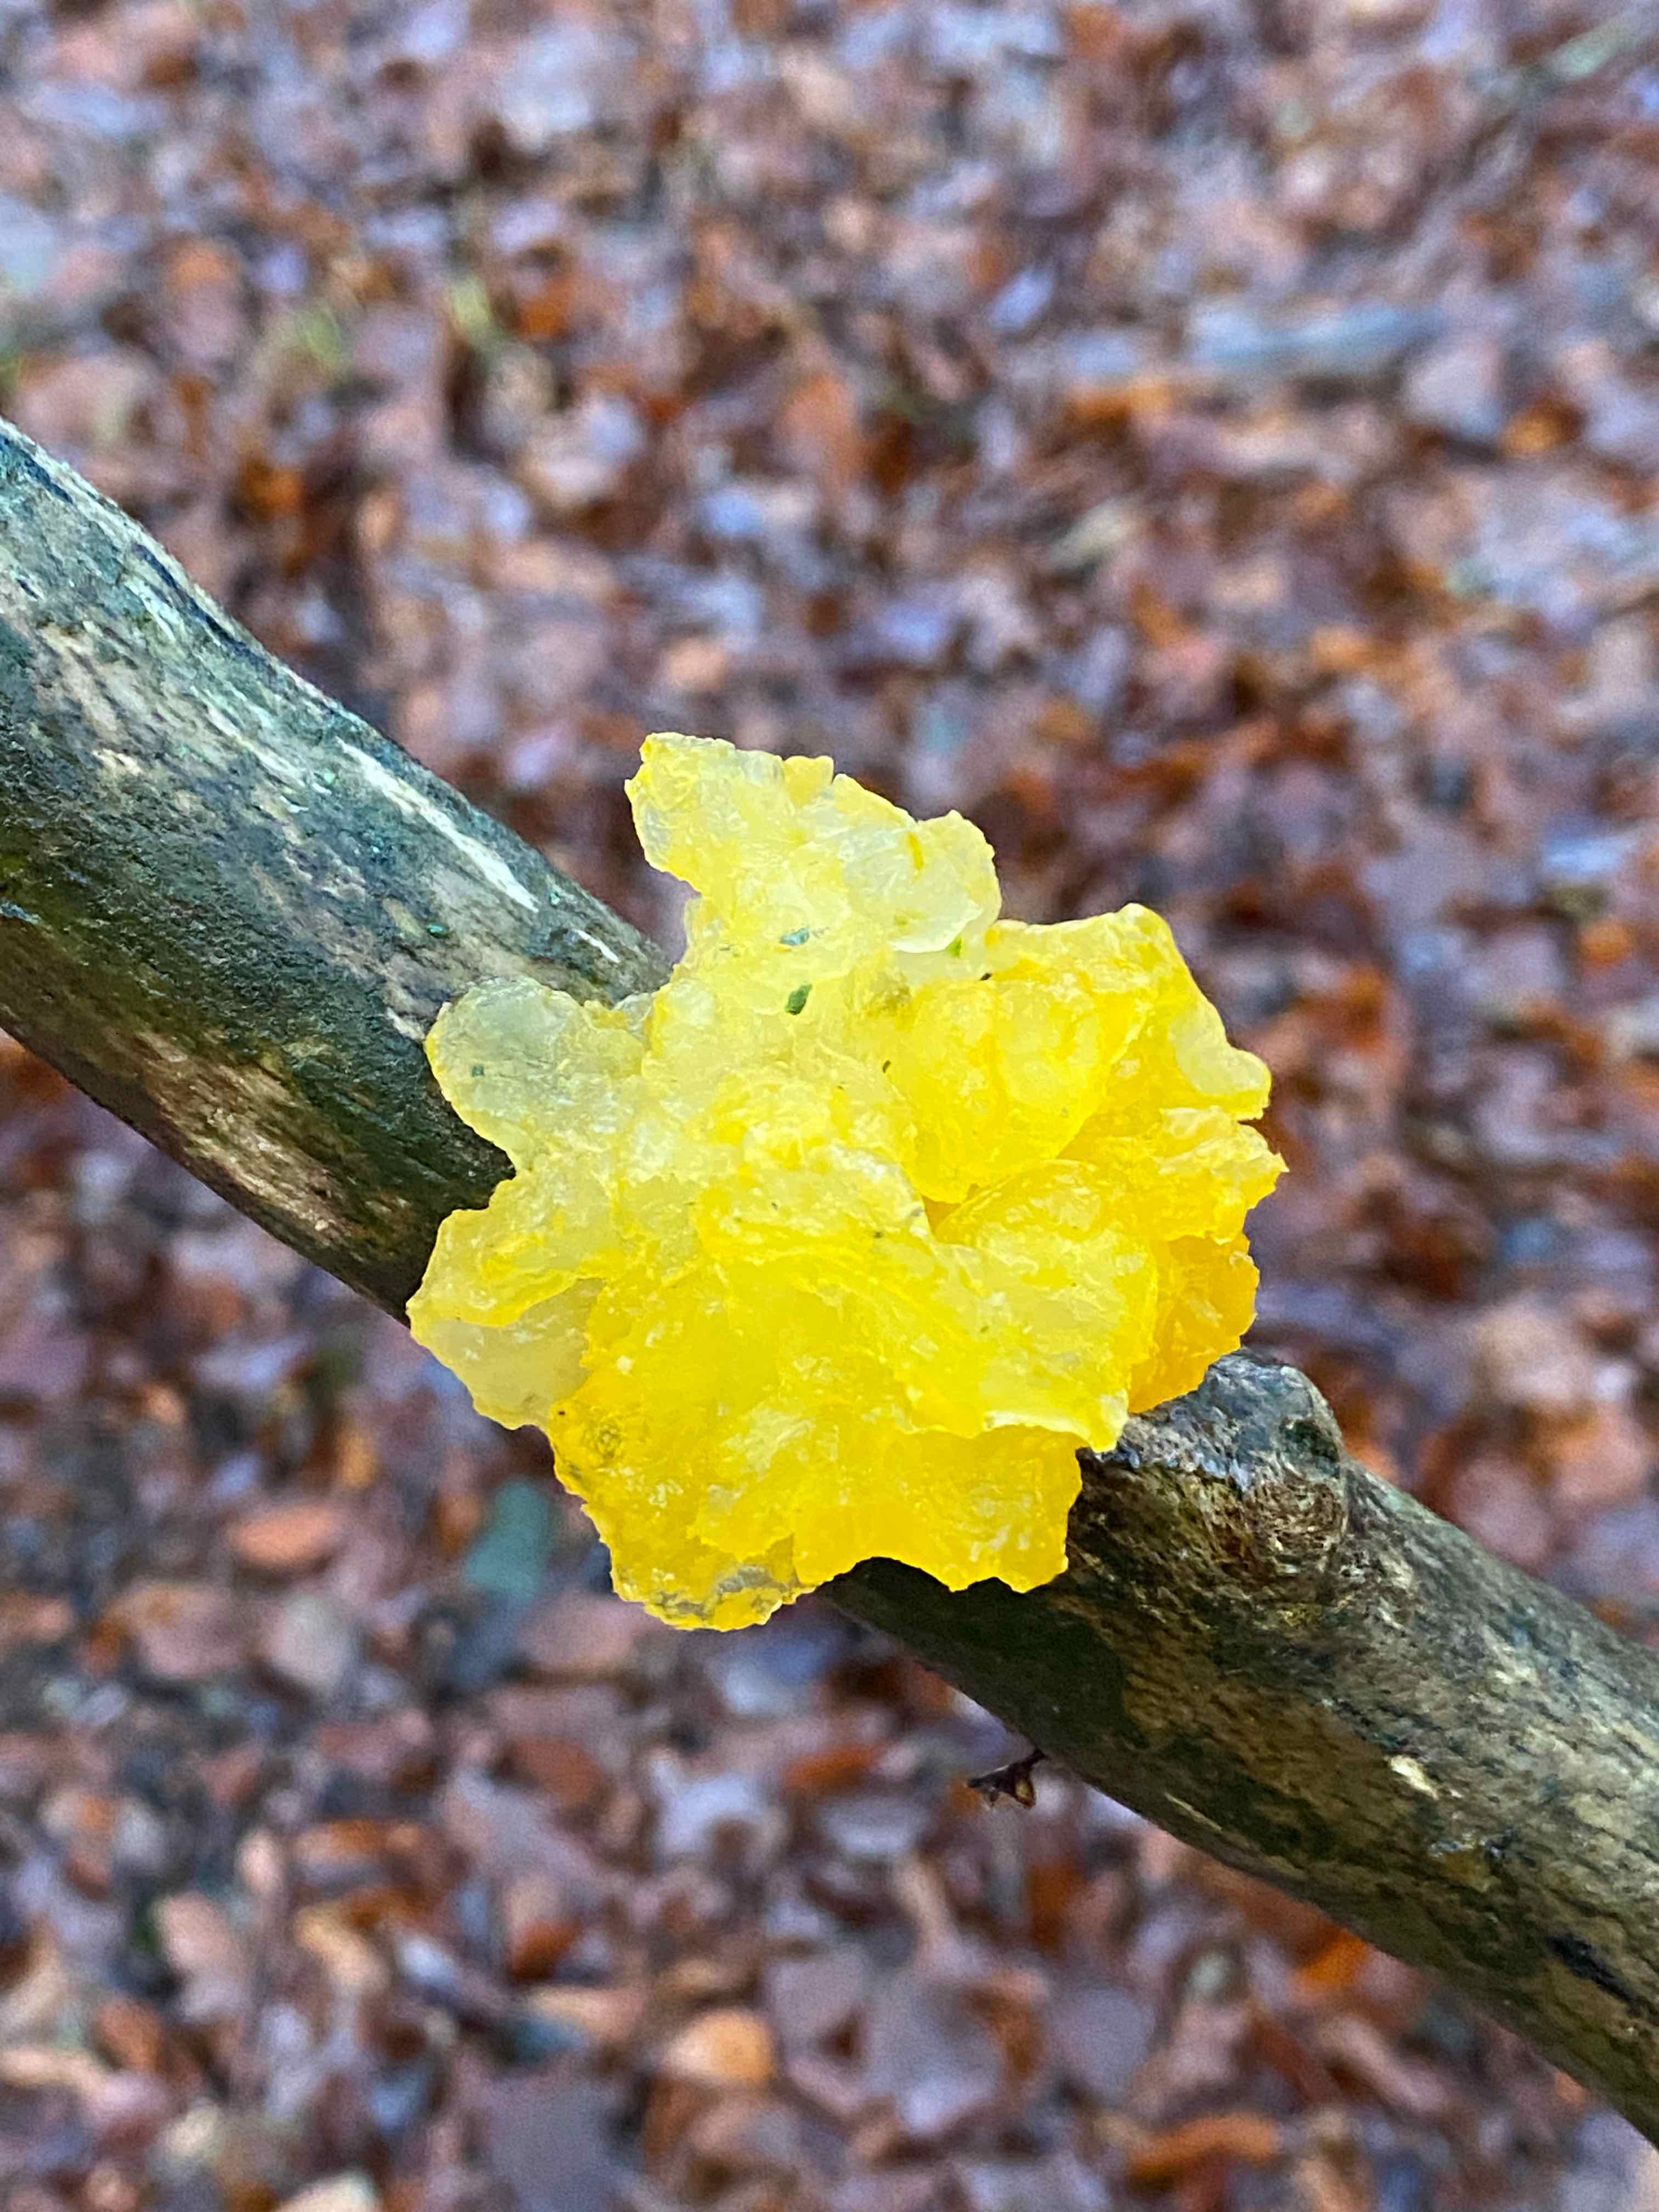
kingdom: Fungi
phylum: Basidiomycota
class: Tremellomycetes
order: Tremellales
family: Tremellaceae
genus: Tremella
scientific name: Tremella mesenterica
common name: gul bævresvamp
